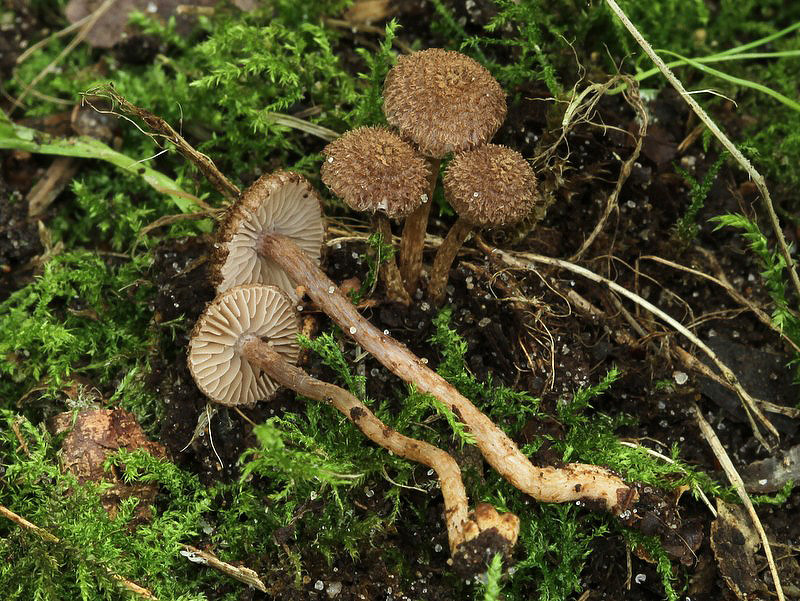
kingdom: Fungi
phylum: Basidiomycota
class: Agaricomycetes
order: Agaricales
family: Inocybaceae
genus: Inocybe
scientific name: Inocybe cincinnata
